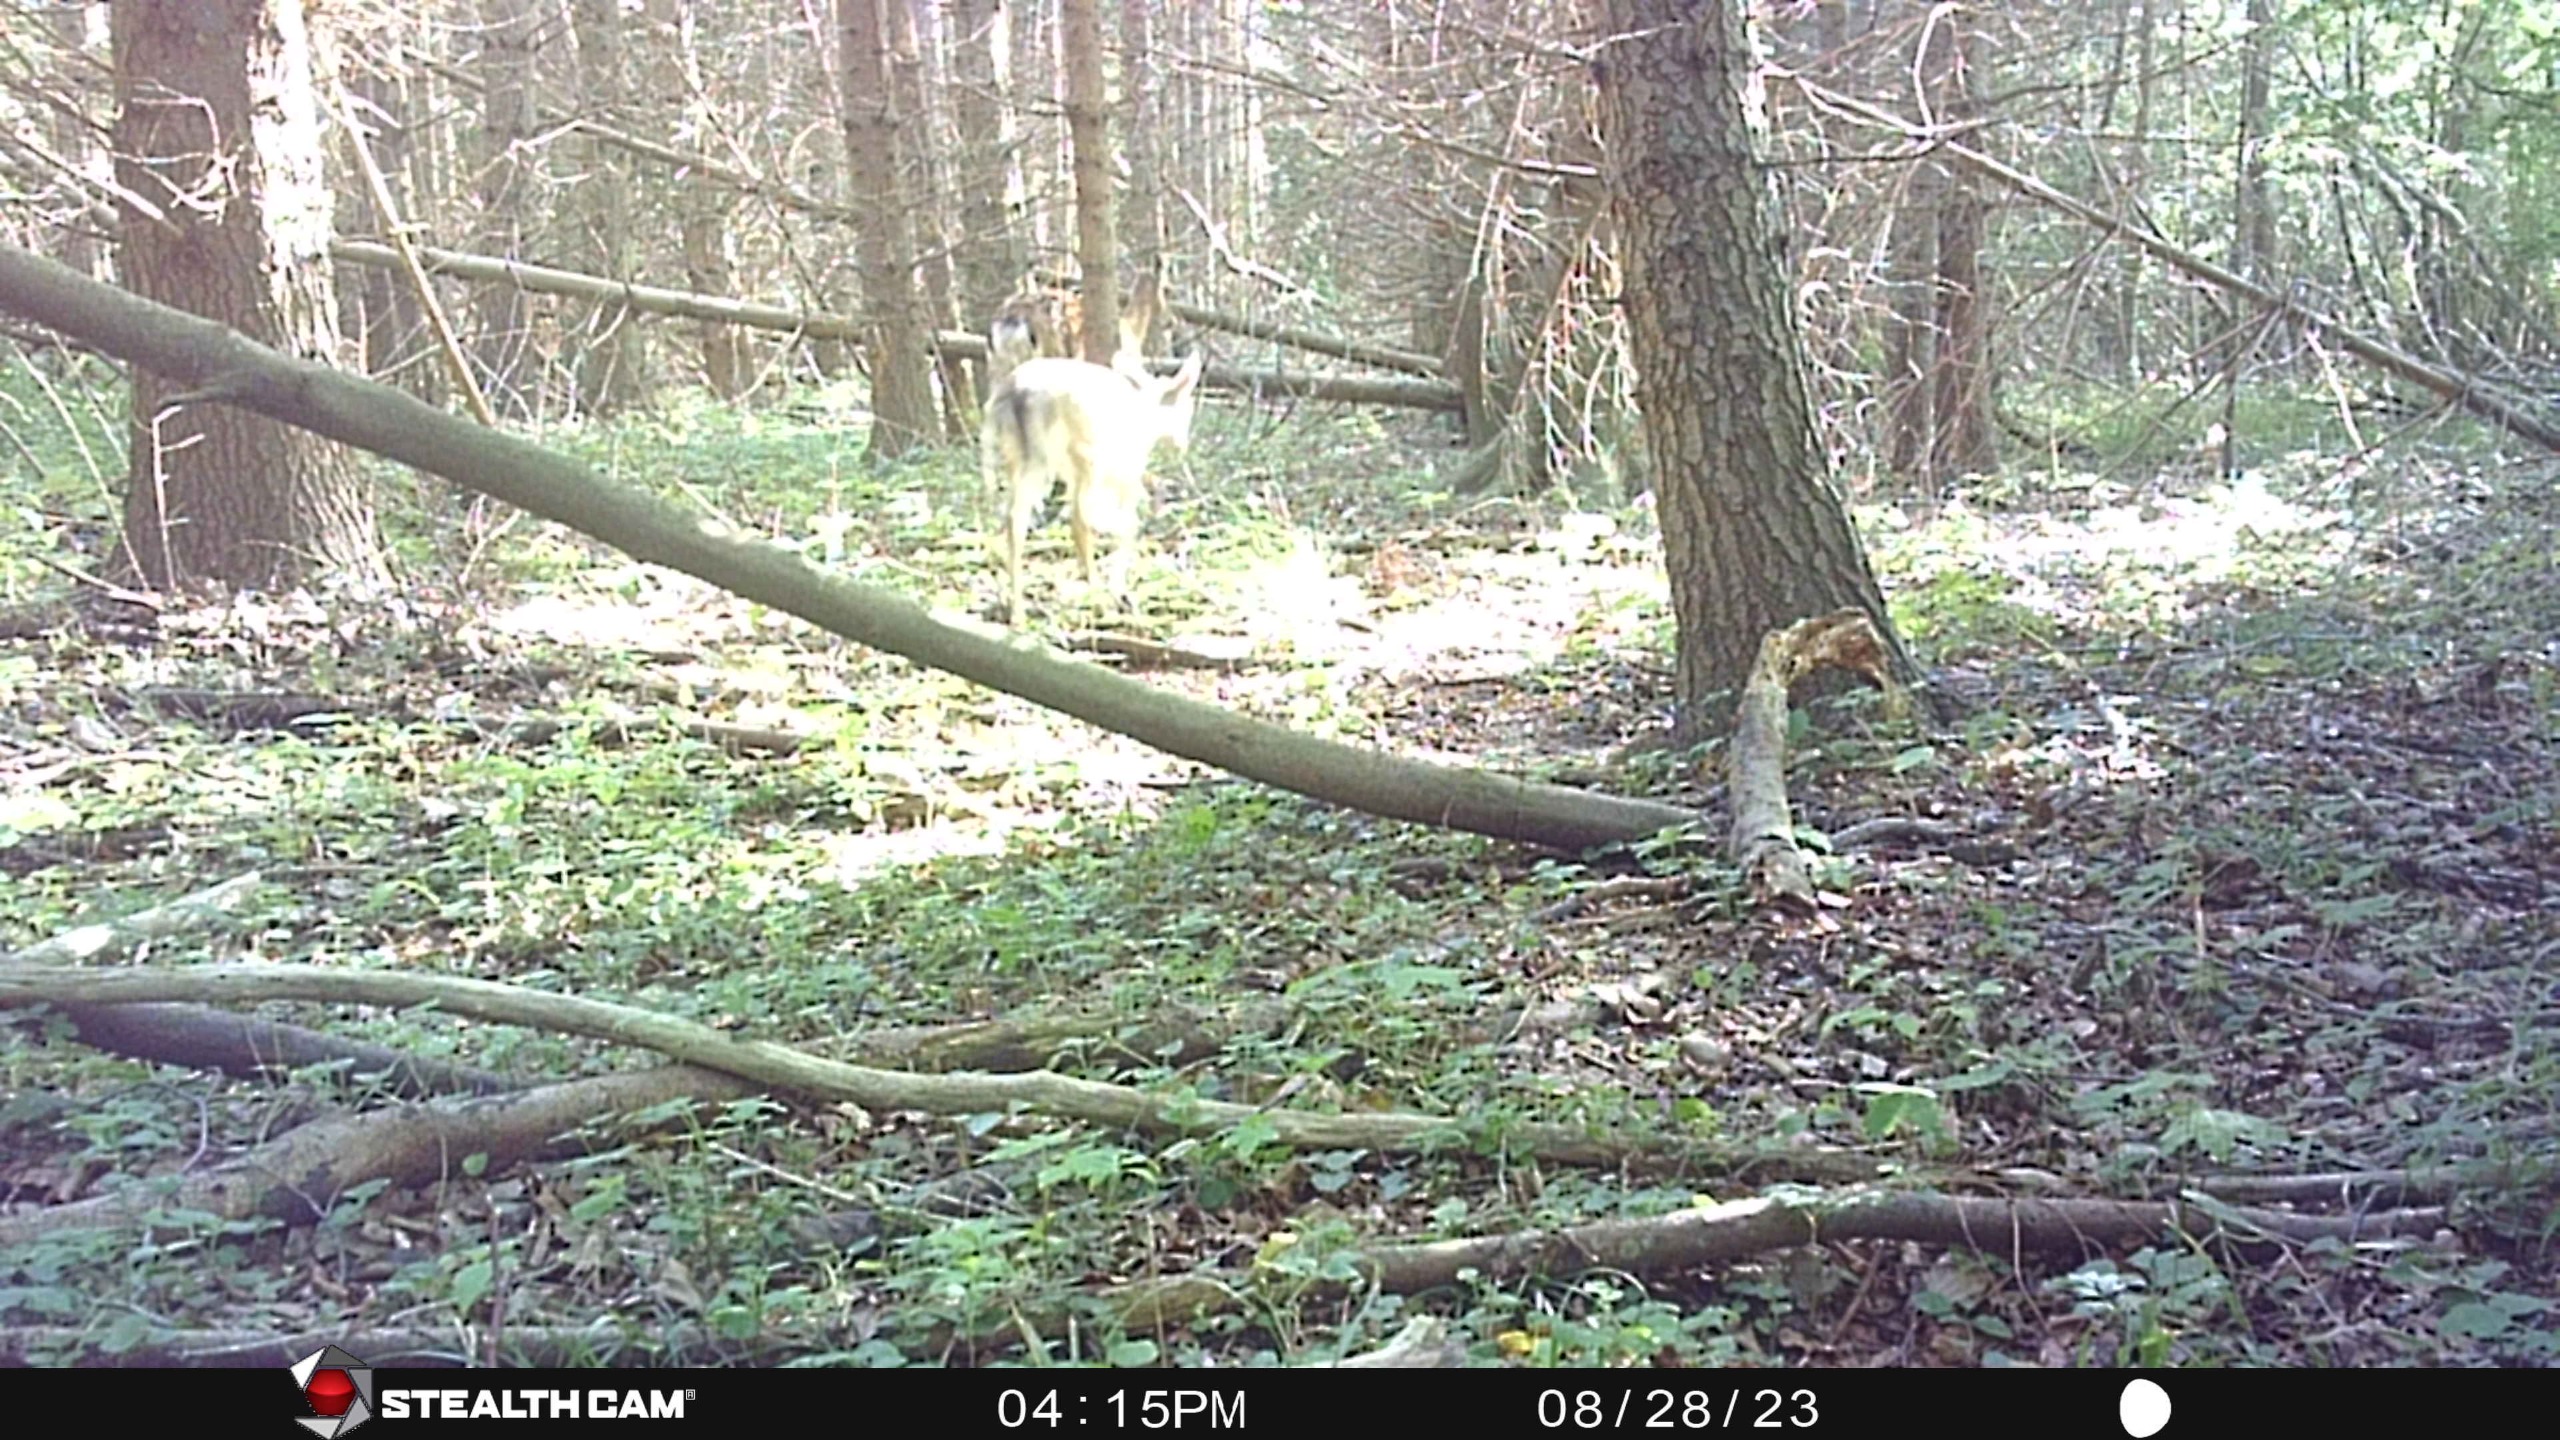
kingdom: Animalia
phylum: Chordata
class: Mammalia
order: Artiodactyla
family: Cervidae
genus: Dama
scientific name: Dama dama
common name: Dådyr
